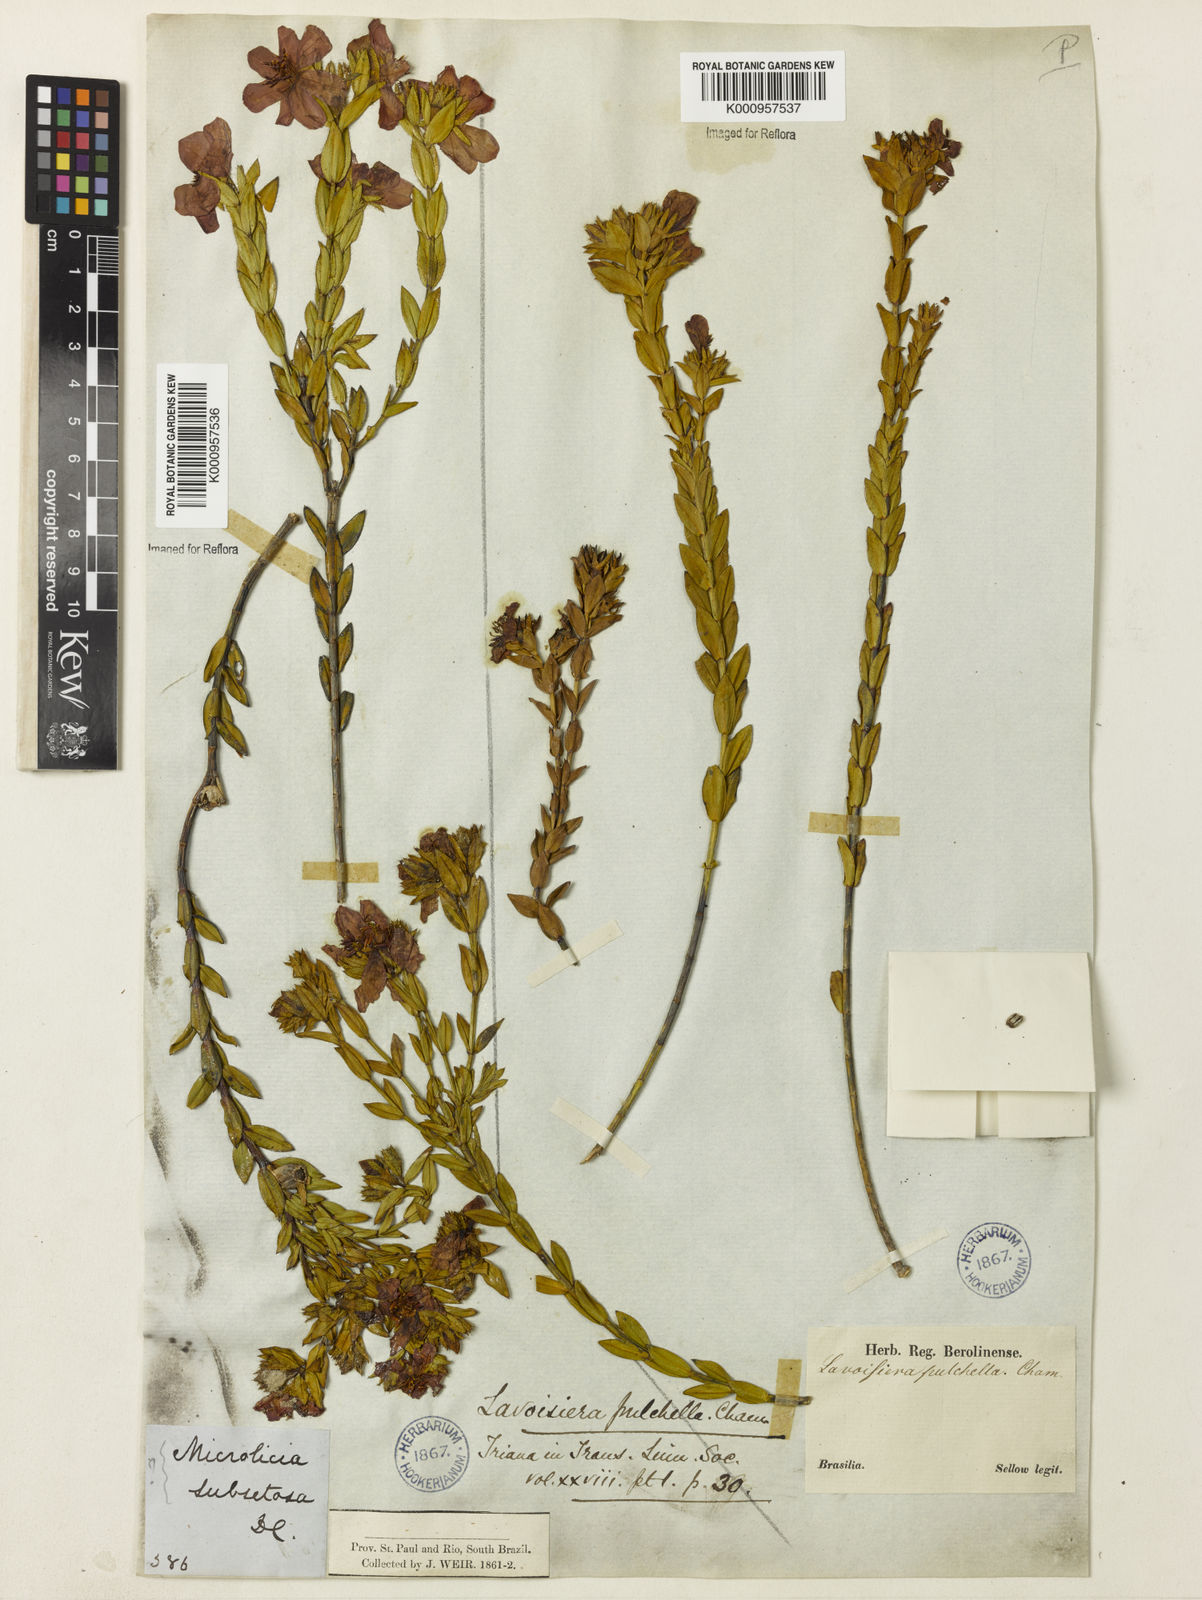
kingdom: Plantae
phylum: Tracheophyta
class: Magnoliopsida
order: Myrtales
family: Melastomataceae
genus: Microlicia
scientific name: Microlicia australis
